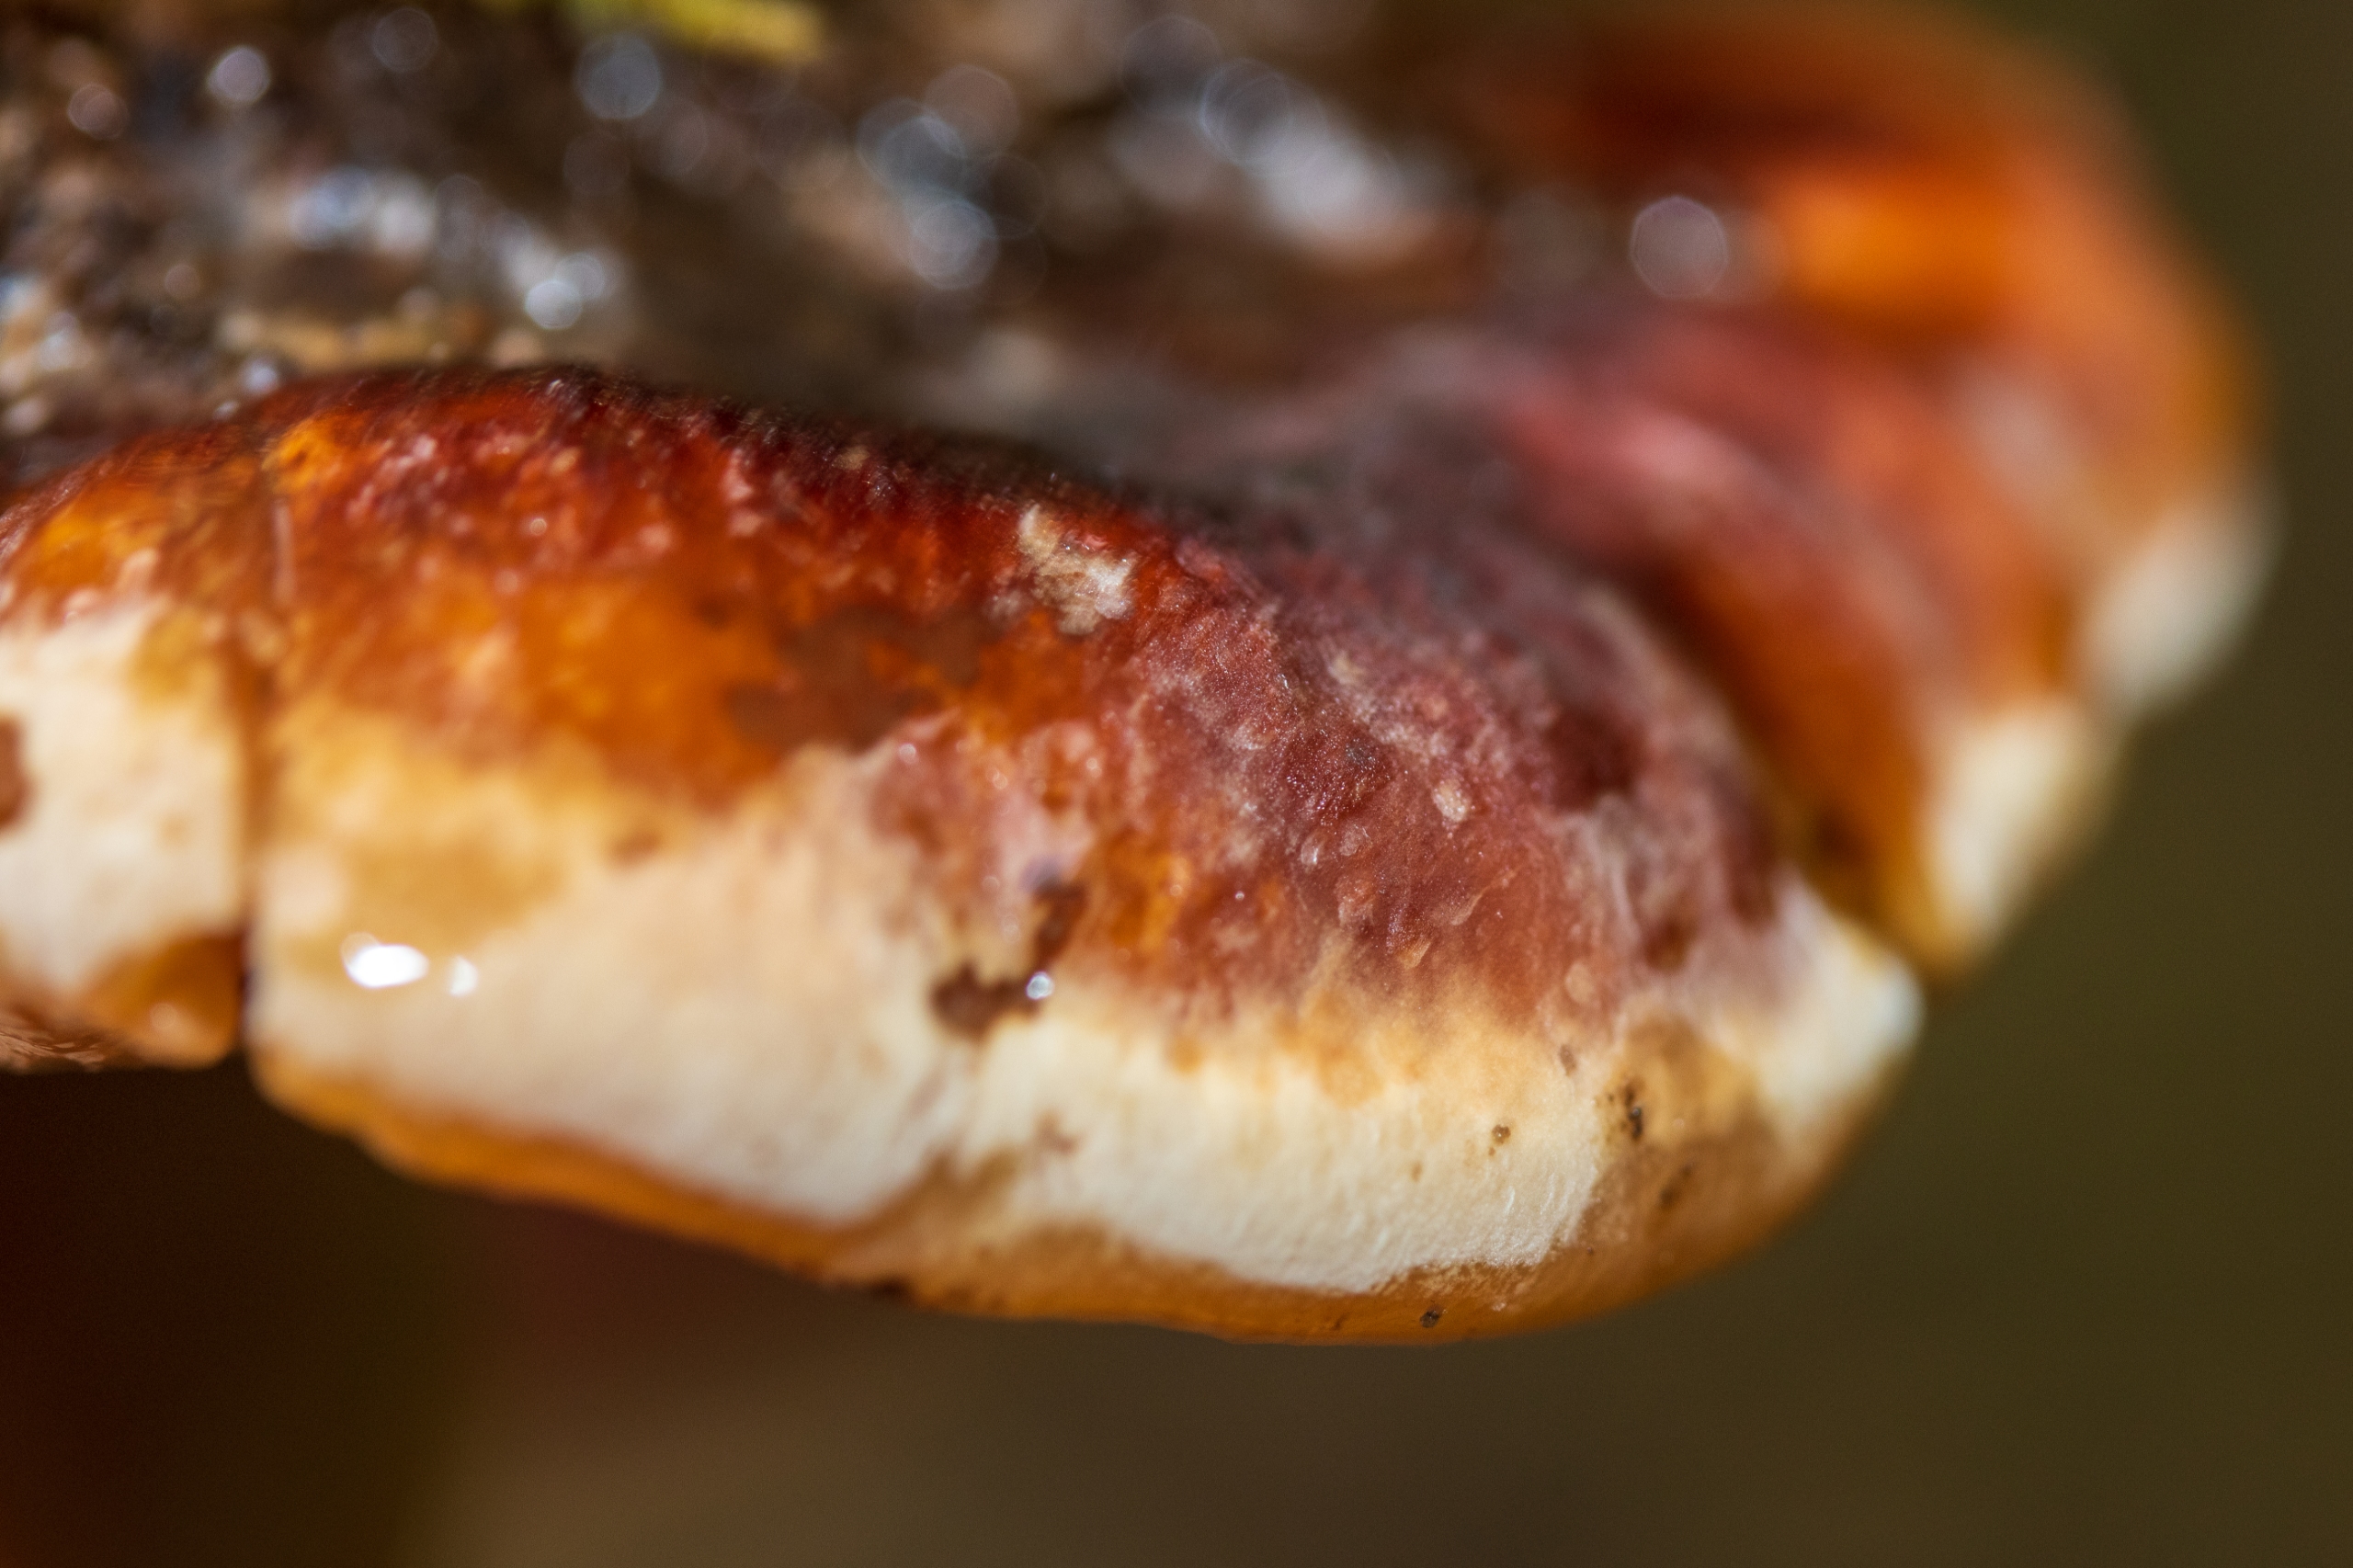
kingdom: Fungi
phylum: Basidiomycota
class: Agaricomycetes
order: Polyporales
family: Fomitopsidaceae
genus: Fomitopsis
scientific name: Fomitopsis pinicola
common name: Randbæltet hovporesvamp
